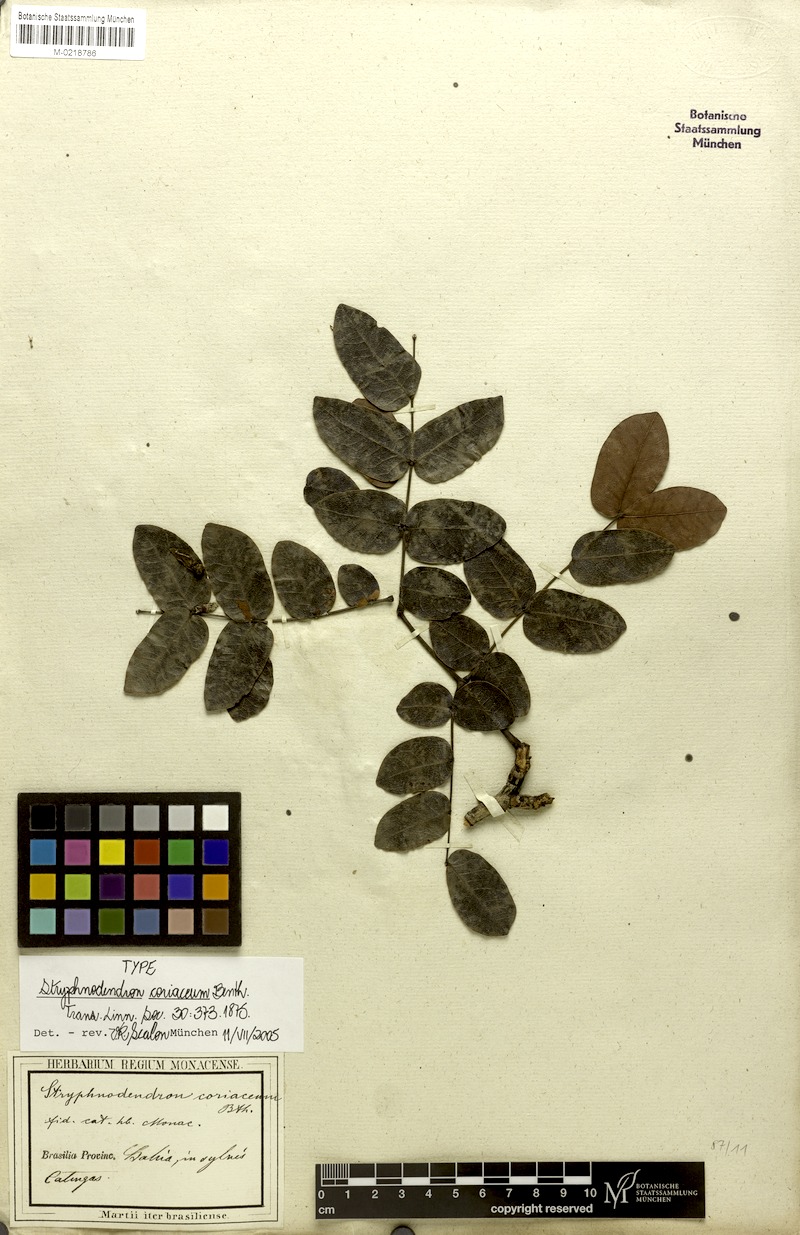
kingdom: Plantae
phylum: Tracheophyta
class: Magnoliopsida
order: Fabales
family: Fabaceae
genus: Stryphnodendron
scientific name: Stryphnodendron coriaceum
